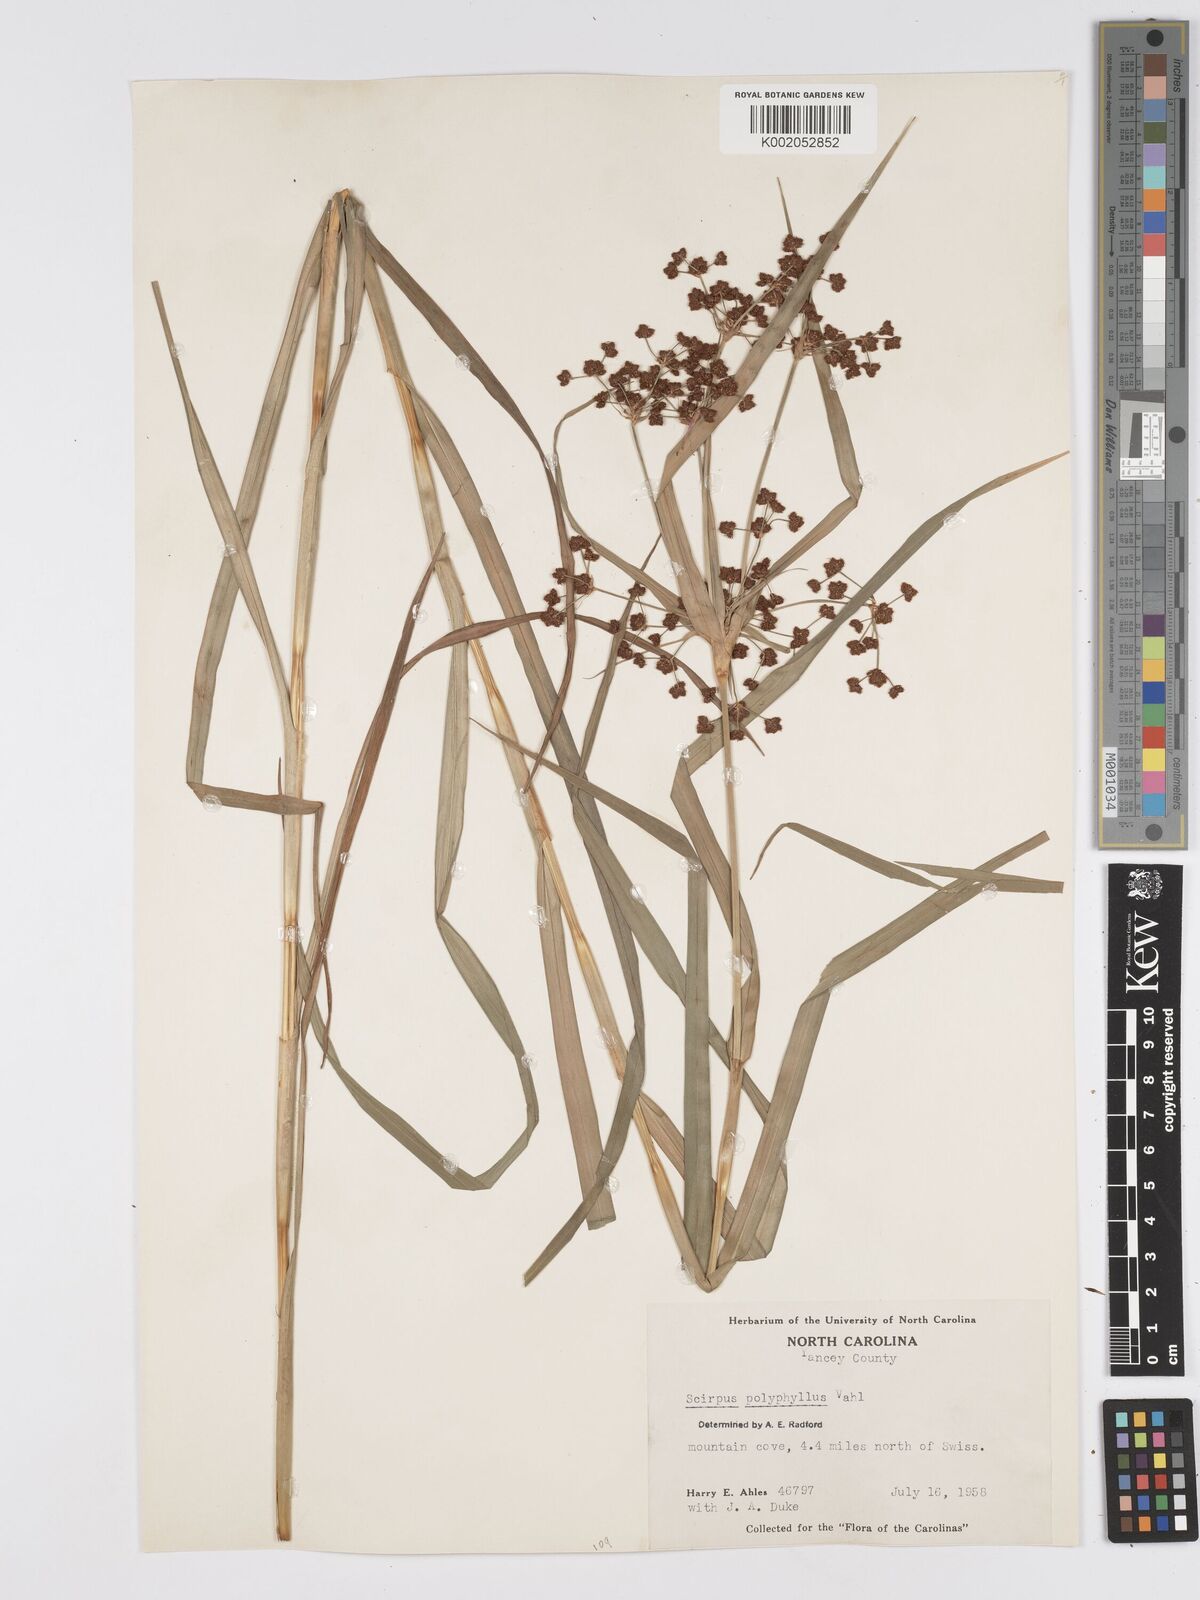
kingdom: Plantae
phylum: Tracheophyta
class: Liliopsida
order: Poales
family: Cyperaceae
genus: Scirpus
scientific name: Scirpus polyphyllus
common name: Leafy bulrush
